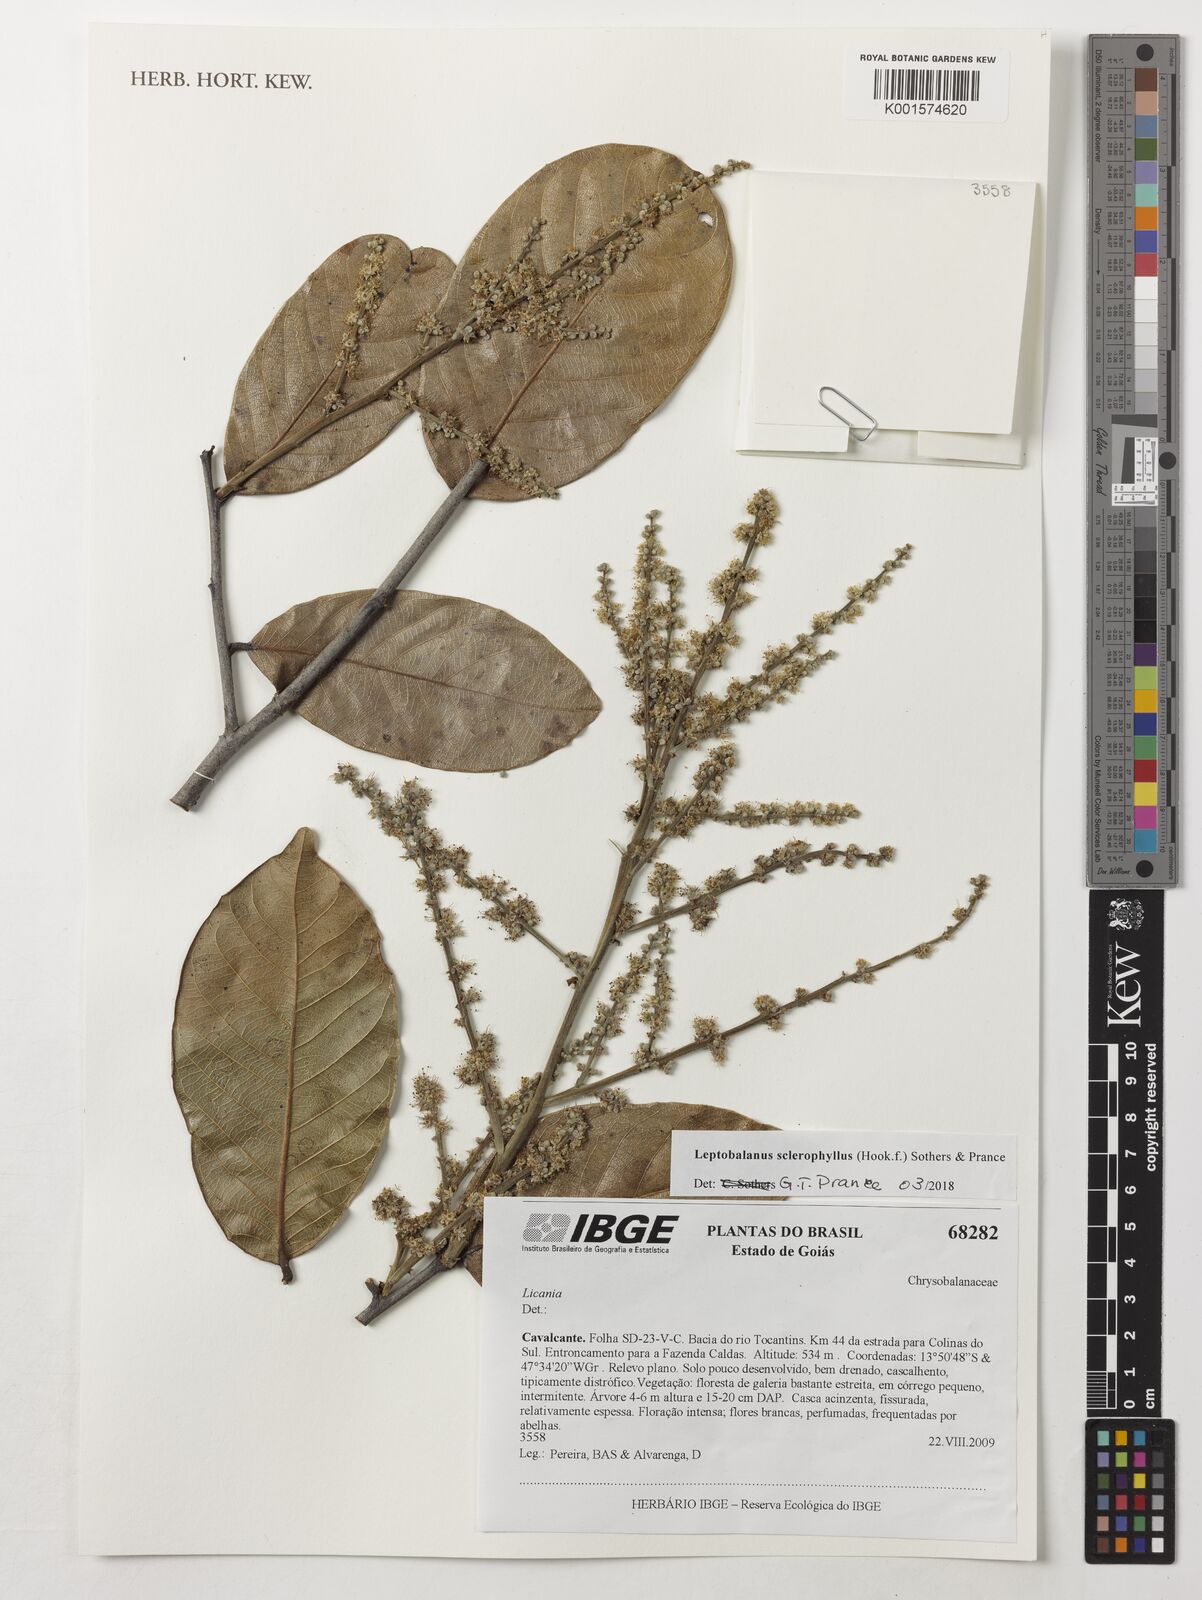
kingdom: Plantae
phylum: Tracheophyta
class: Magnoliopsida
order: Malpighiales
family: Chrysobalanaceae
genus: Leptobalanus
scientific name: Leptobalanus sclerophyllus
